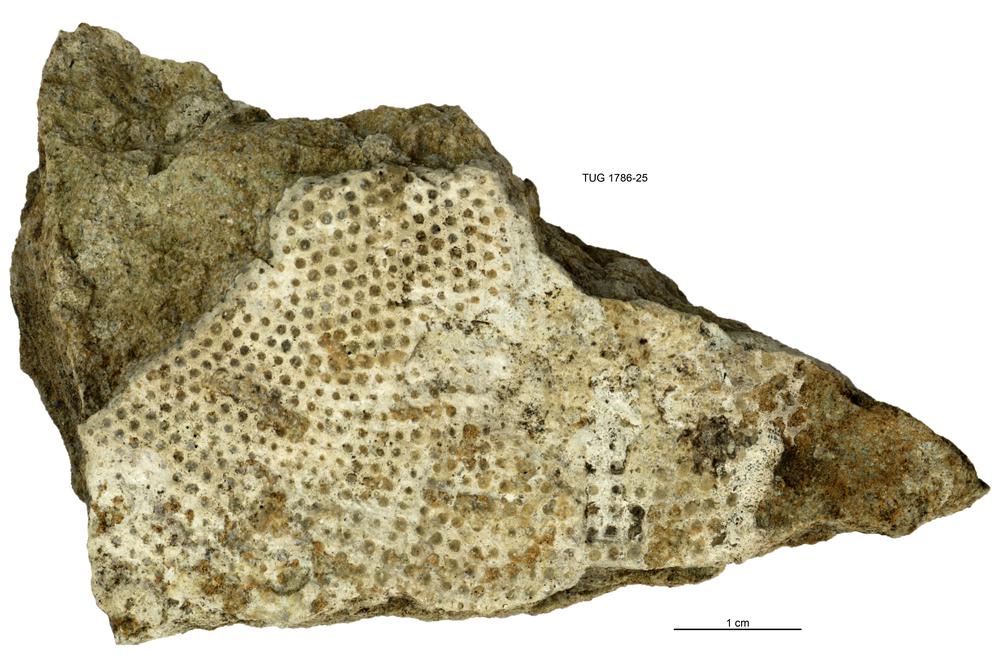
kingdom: Plantae
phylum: Chlorophyta
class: Chlorophyceae
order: Receptaculitales
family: Receptaculitaceae
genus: Receptaculites
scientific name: Receptaculites
